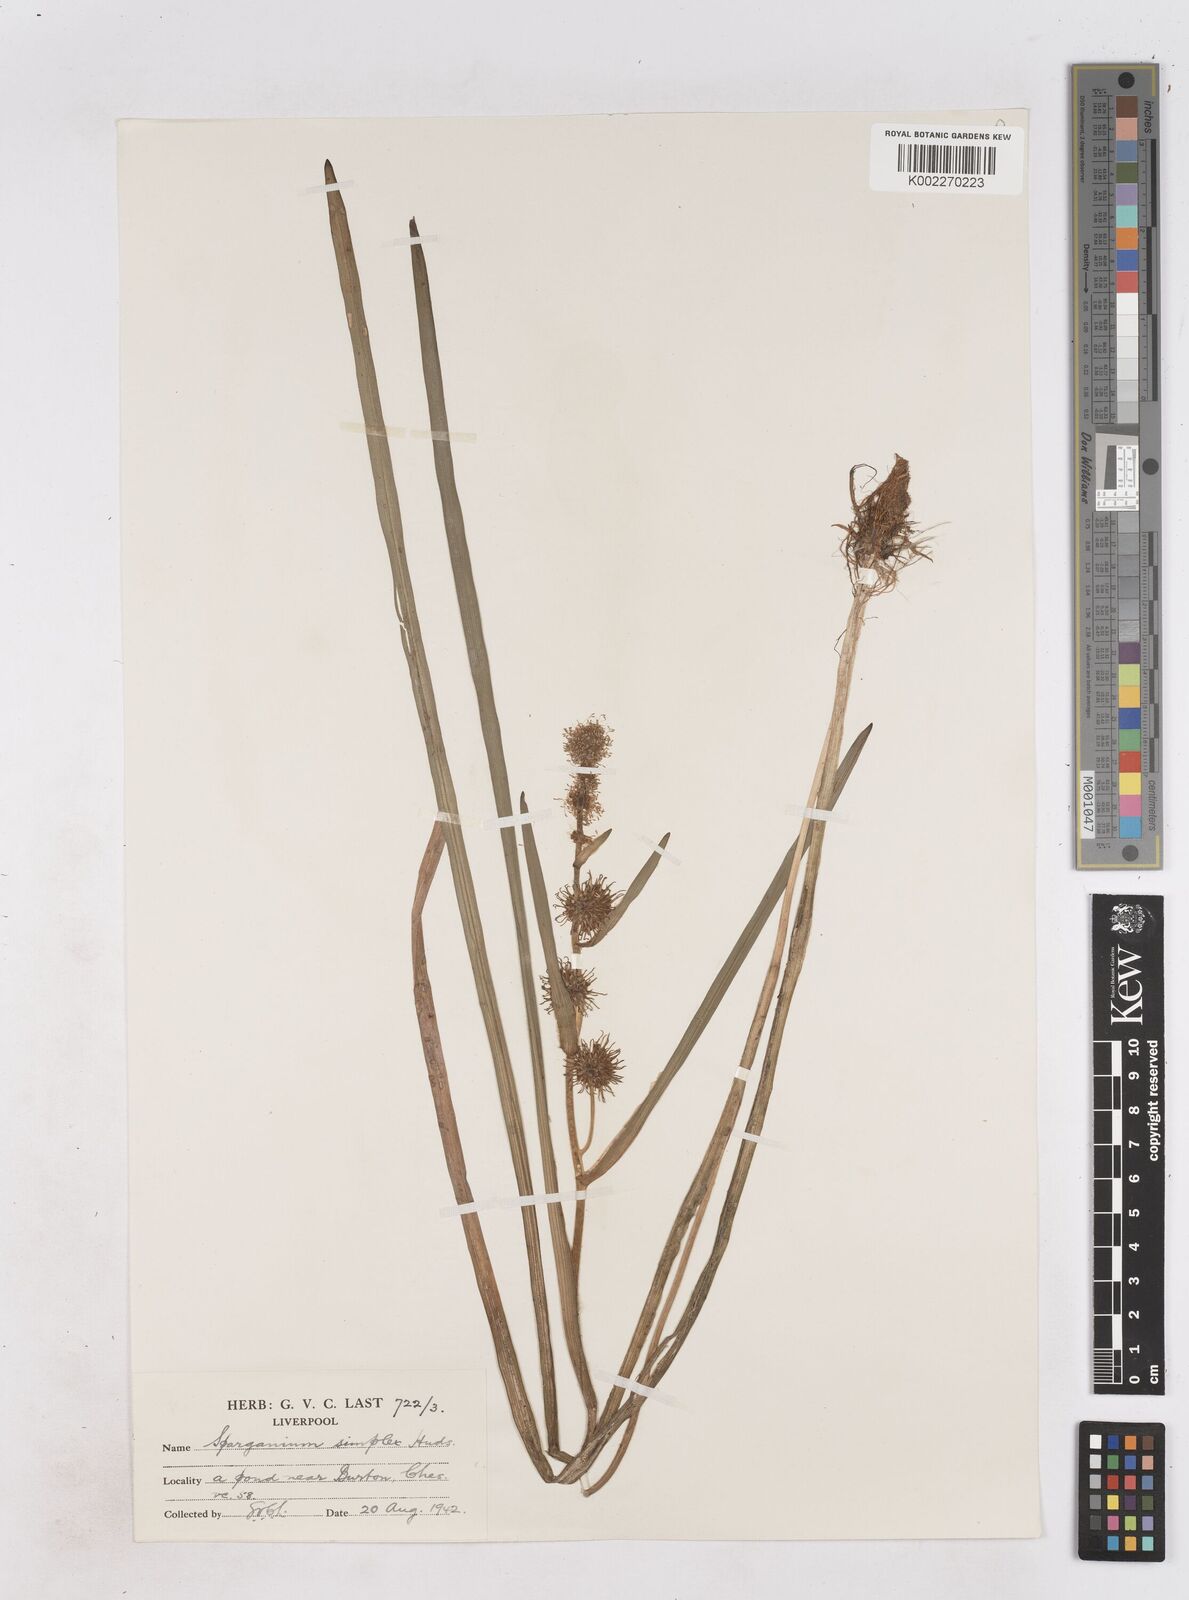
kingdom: Plantae
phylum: Tracheophyta
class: Liliopsida
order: Poales
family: Typhaceae
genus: Sparganium
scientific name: Sparganium emersum
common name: Unbranched bur-reed
